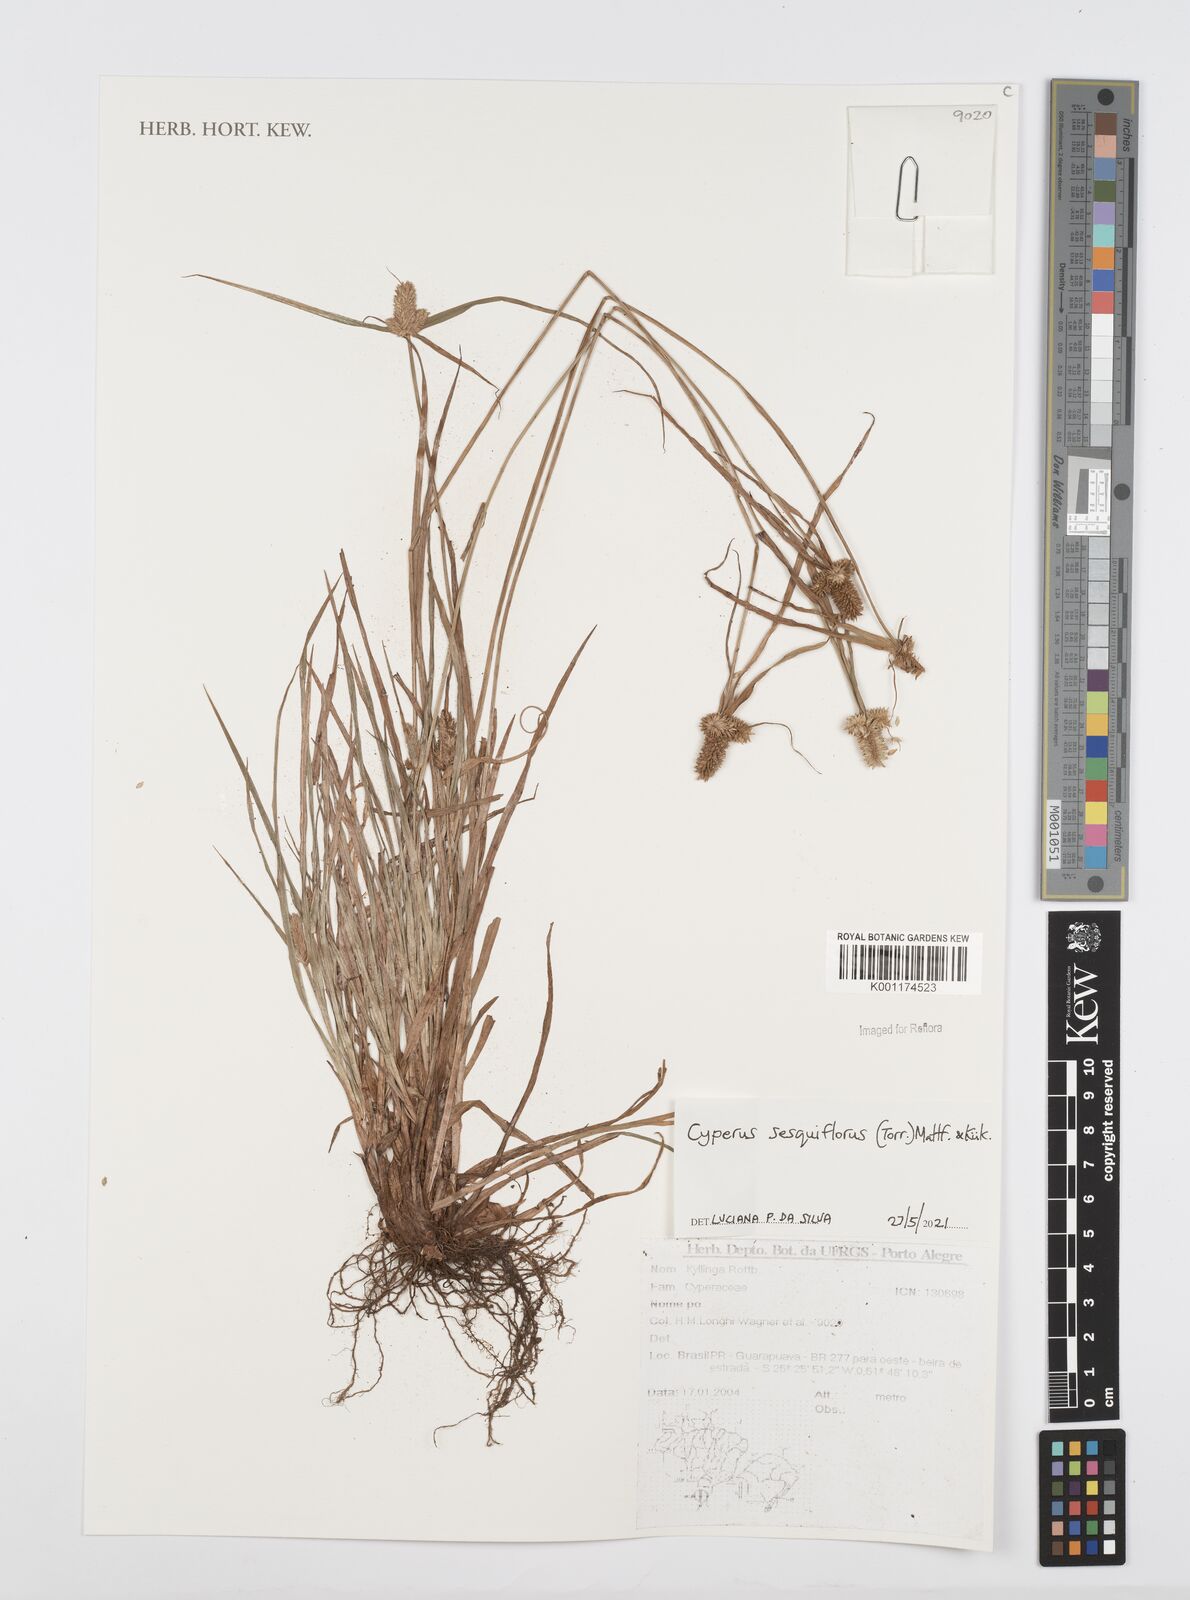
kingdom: Plantae
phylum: Tracheophyta
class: Liliopsida
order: Poales
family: Cyperaceae
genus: Cyperus
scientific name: Cyperus
